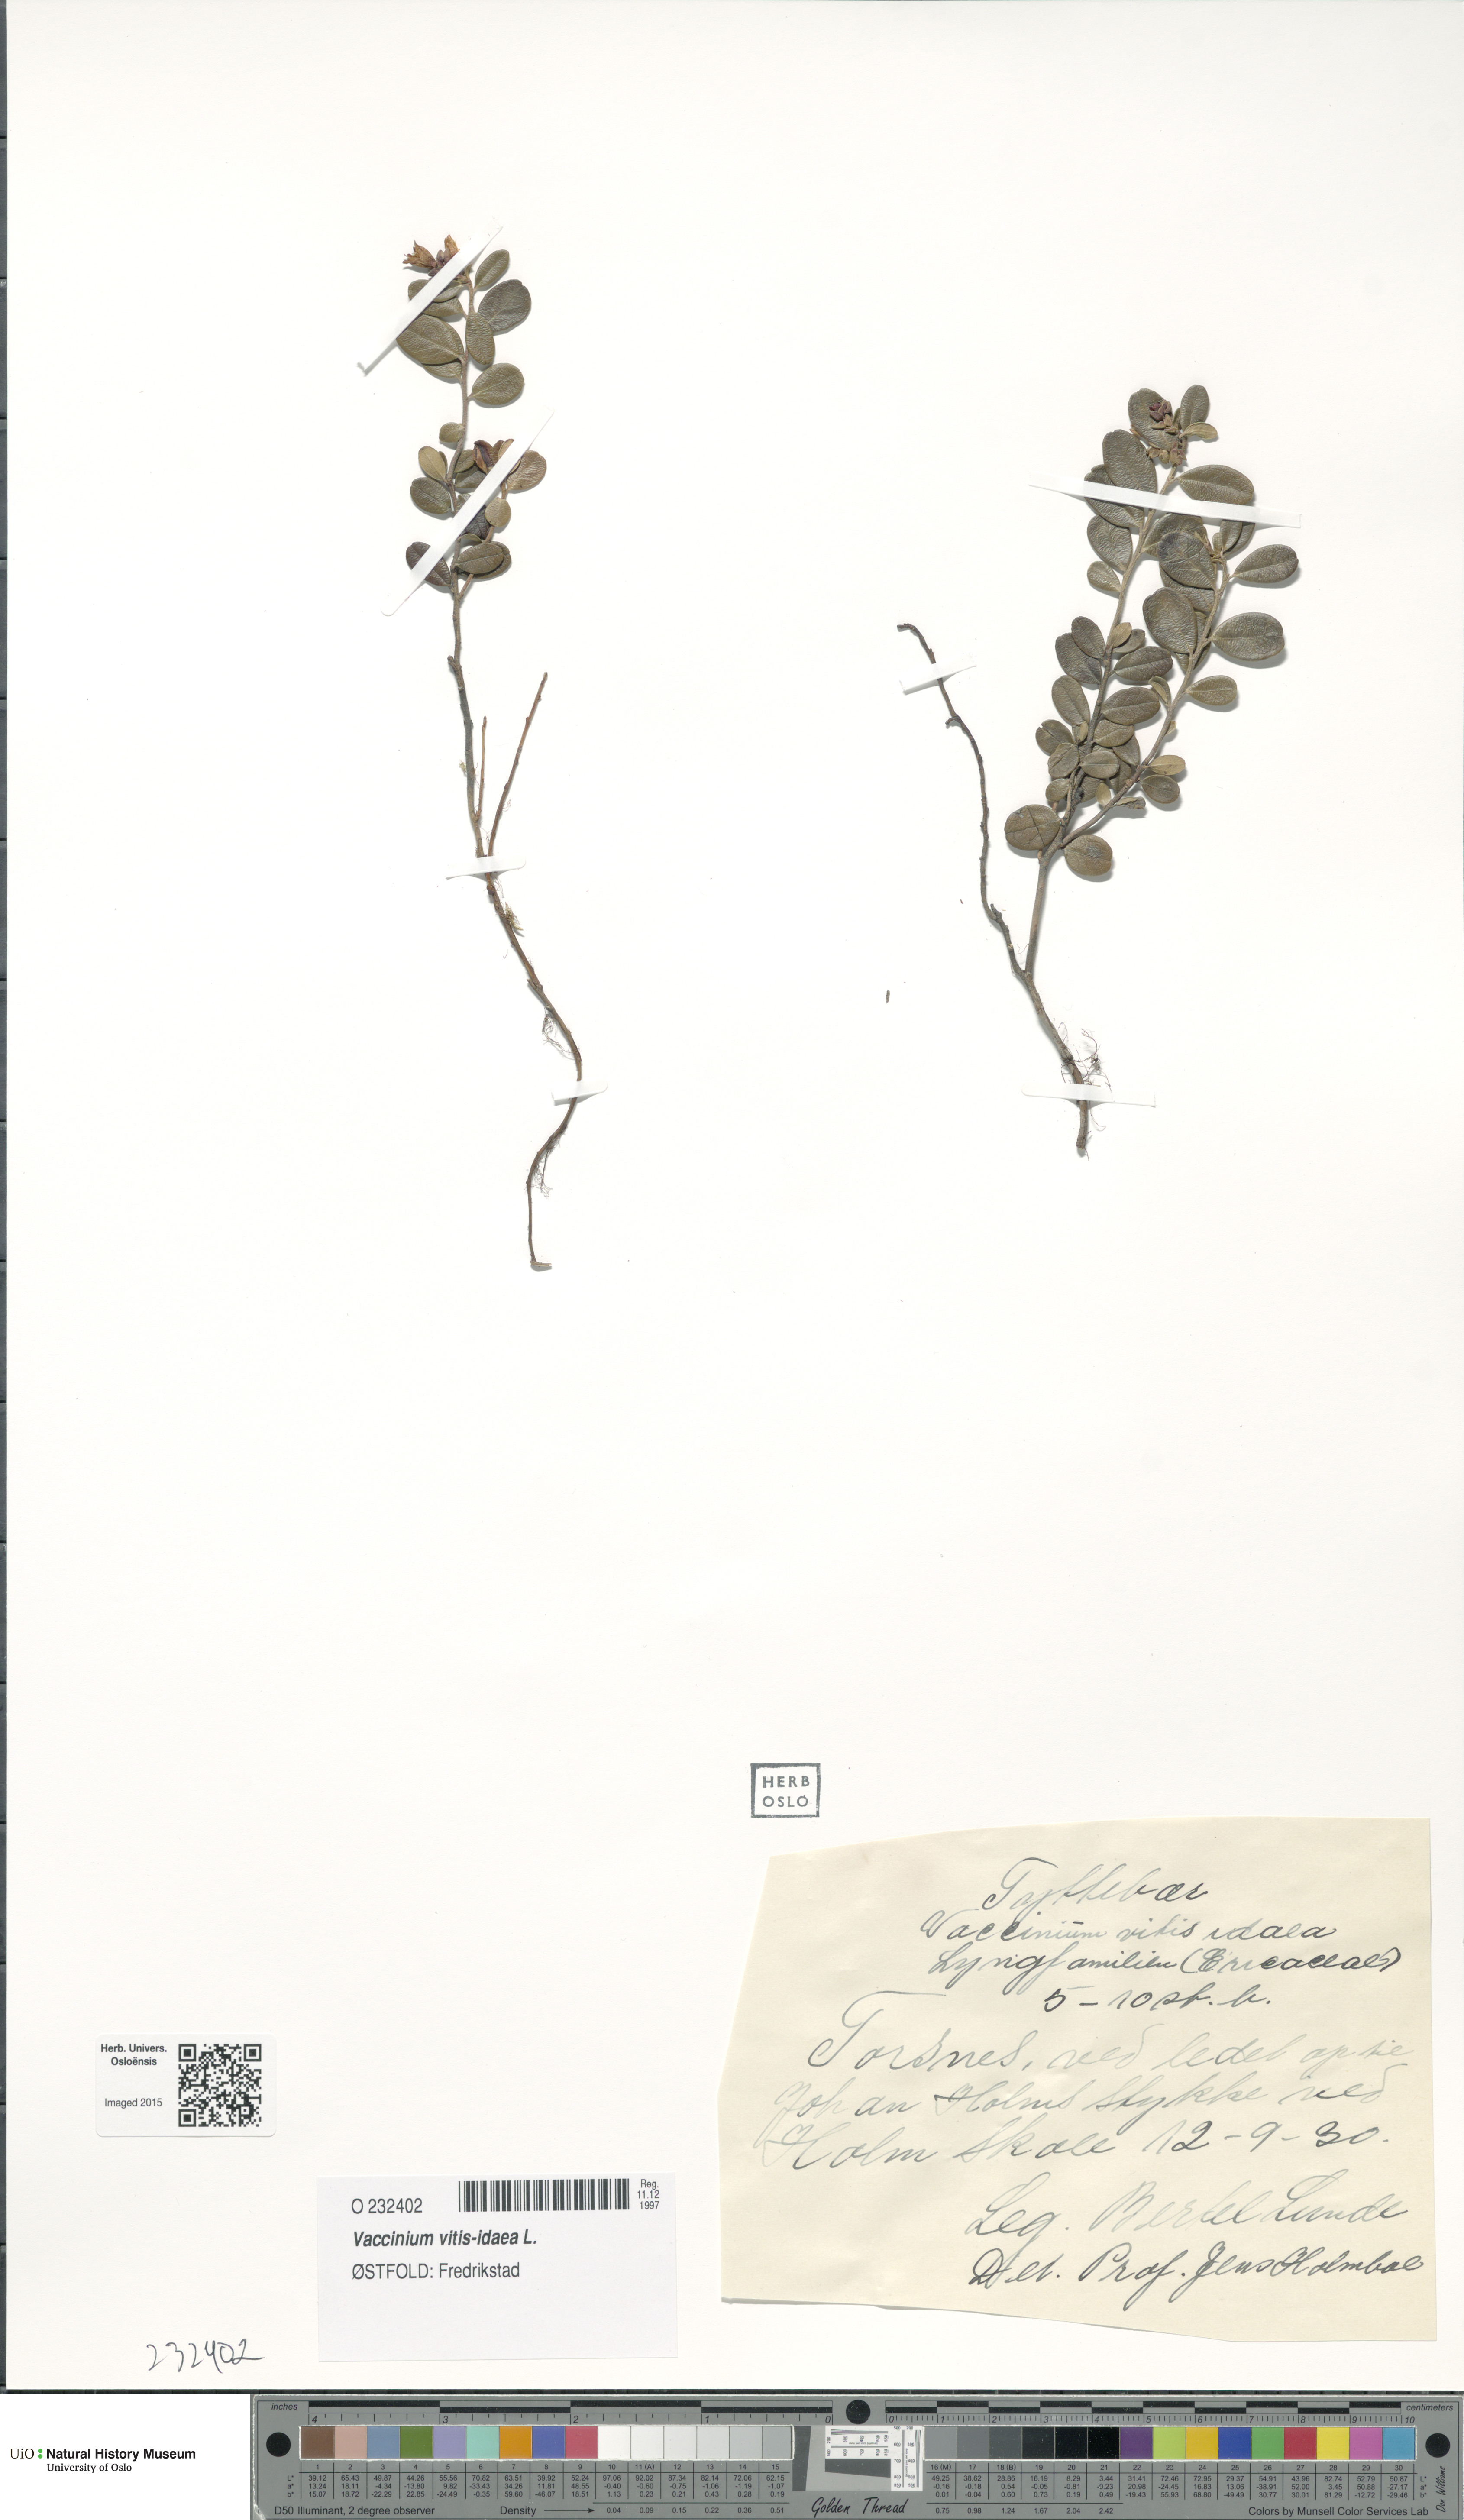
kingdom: Plantae
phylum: Tracheophyta
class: Magnoliopsida
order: Ericales
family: Ericaceae
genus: Vaccinium
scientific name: Vaccinium vitis-idaea
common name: Cowberry
